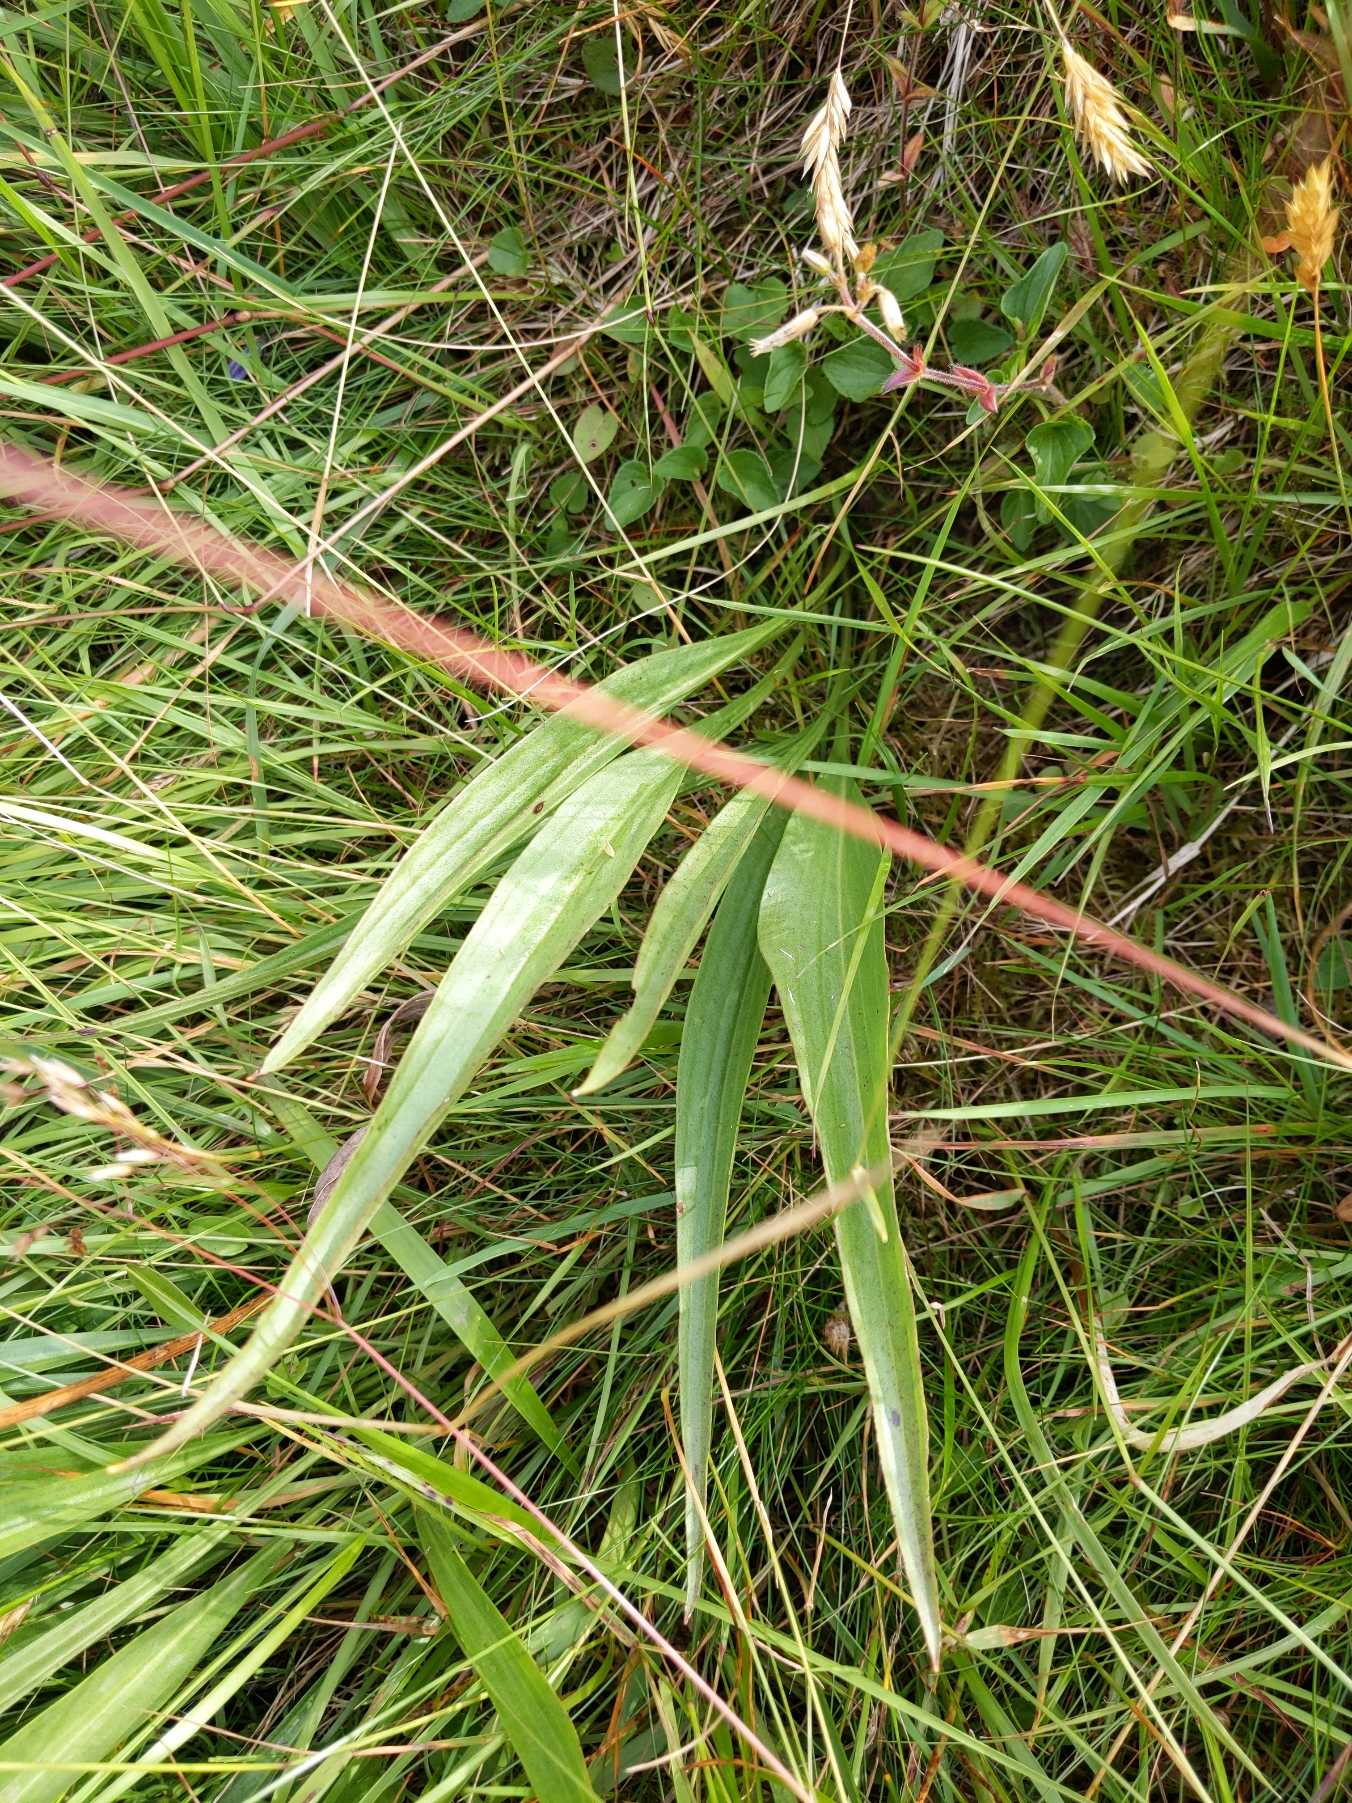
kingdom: Plantae
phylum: Tracheophyta
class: Magnoliopsida
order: Asterales
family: Asteraceae
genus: Scorzonera
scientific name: Scorzonera humilis
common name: Lav skorsoner
